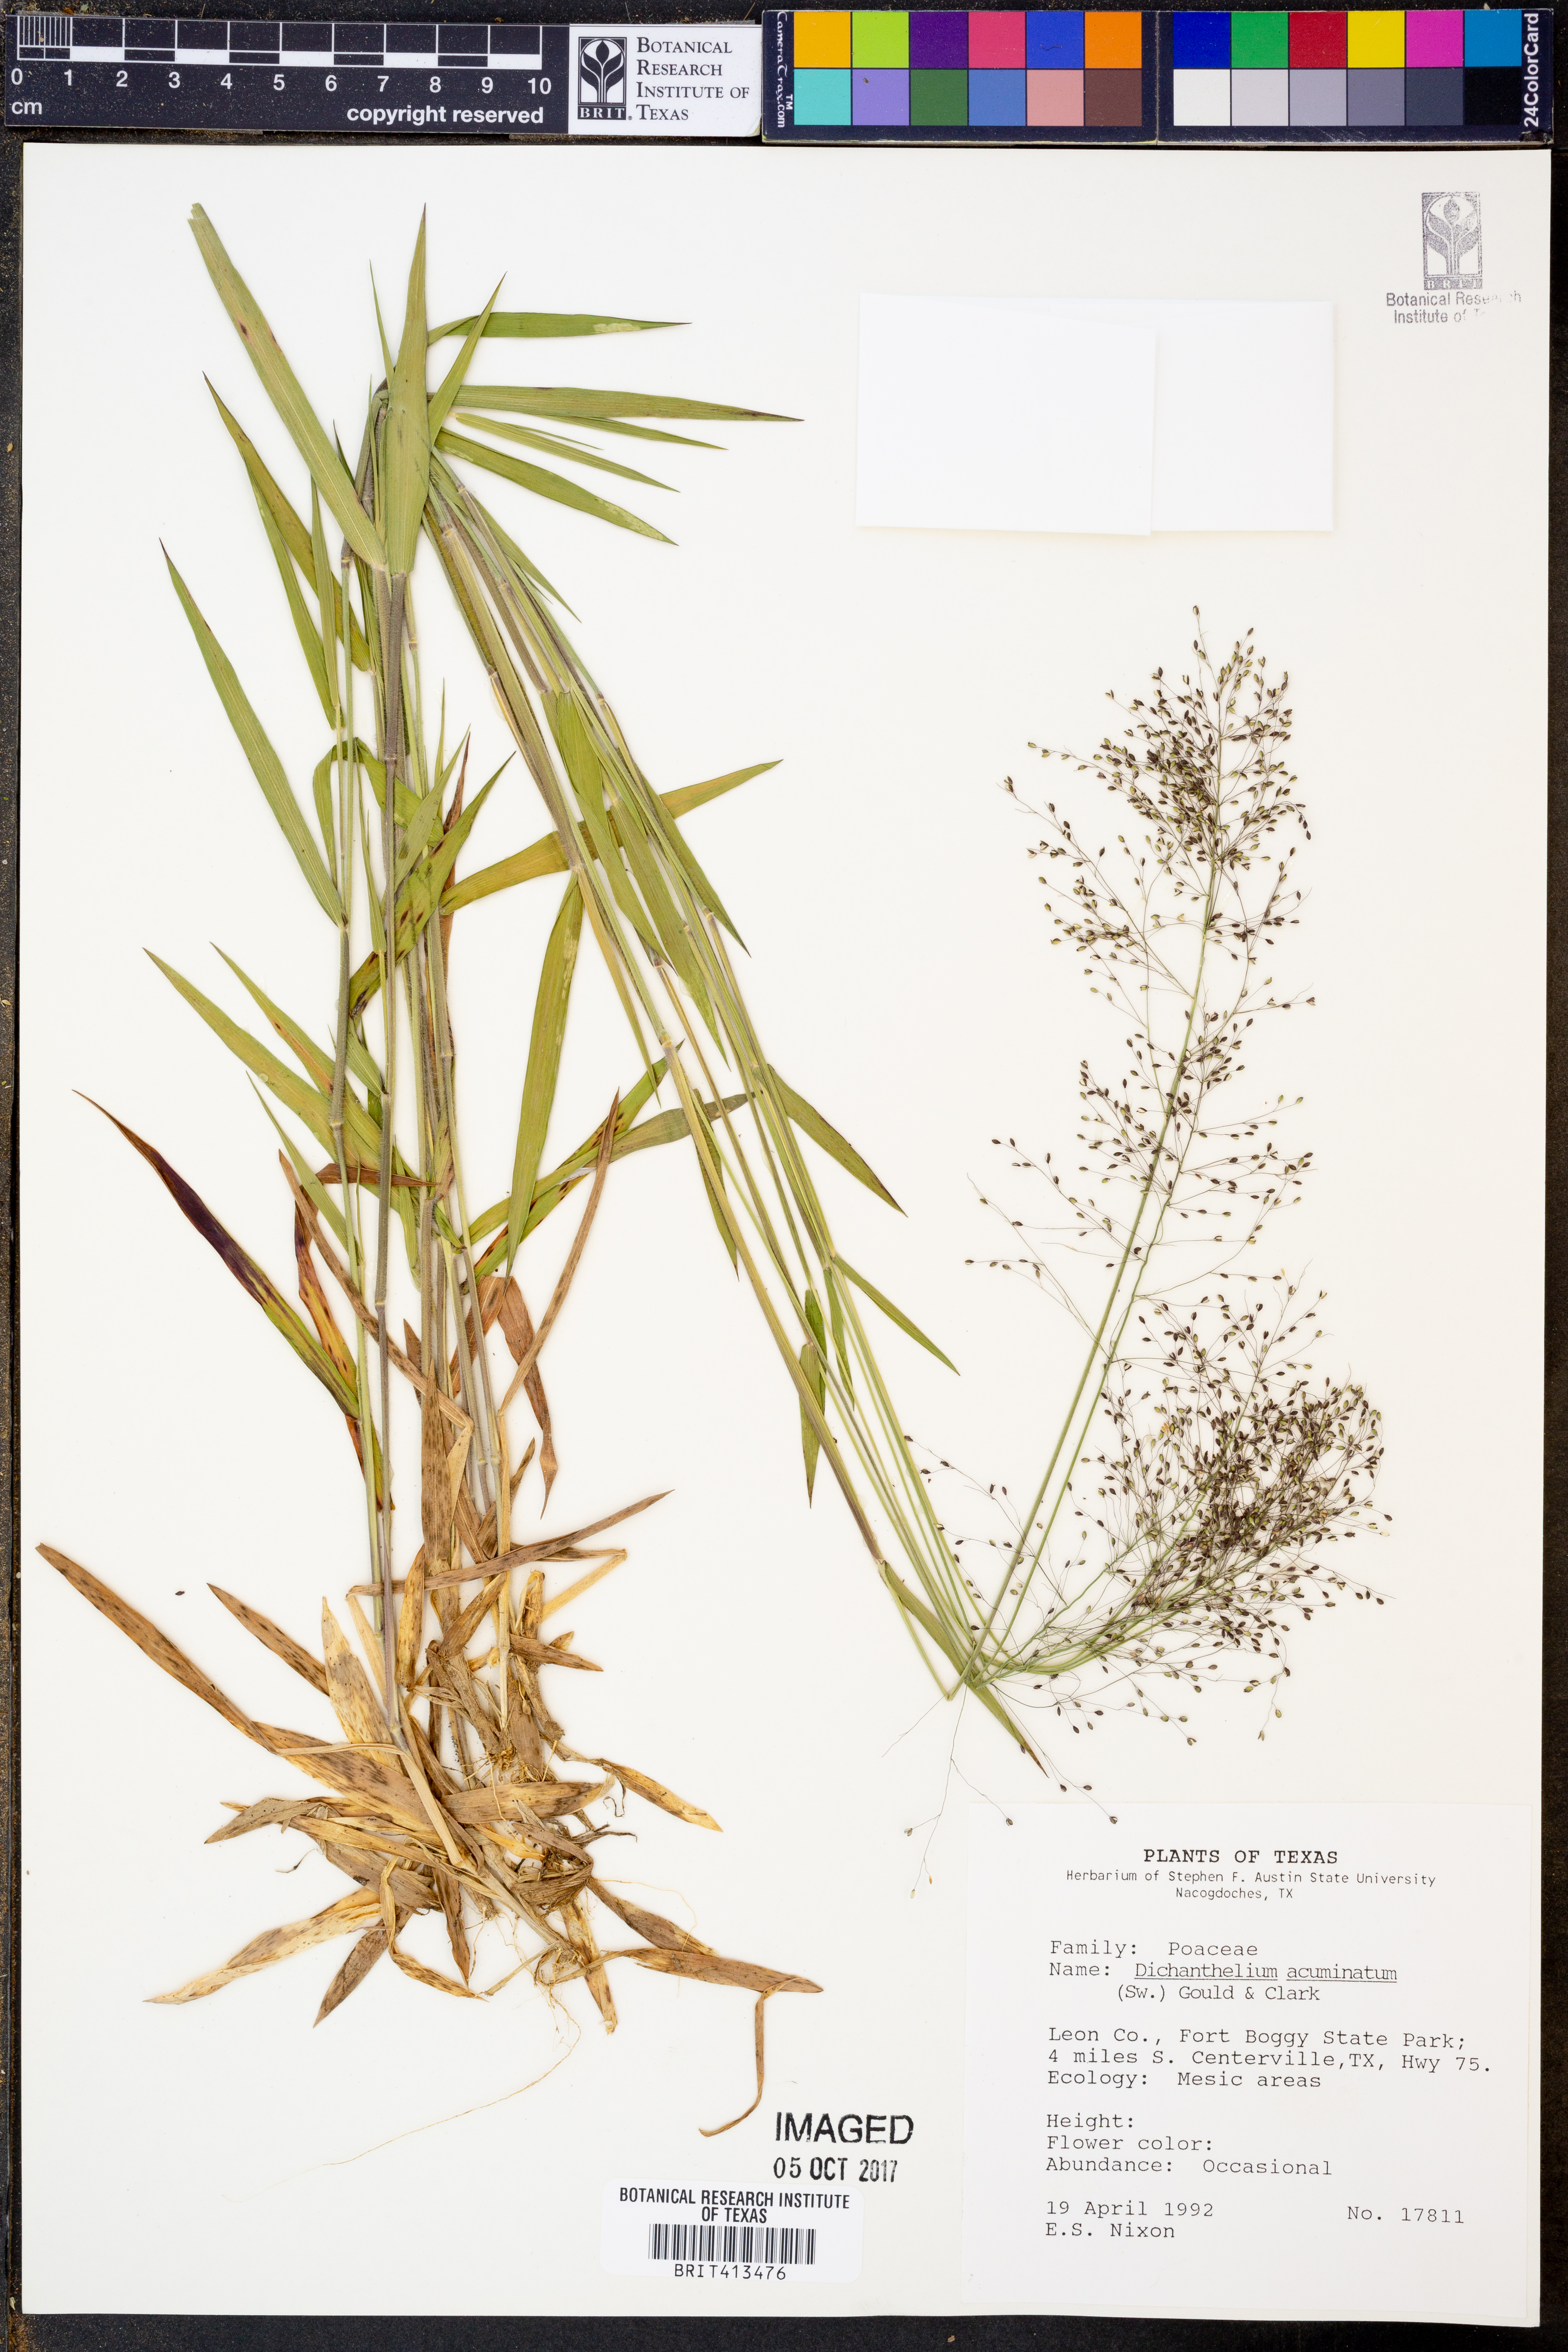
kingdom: Plantae
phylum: Tracheophyta
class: Liliopsida
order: Poales
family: Poaceae
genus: Dichanthelium
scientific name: Dichanthelium acuminatum
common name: Hairy panic grass
